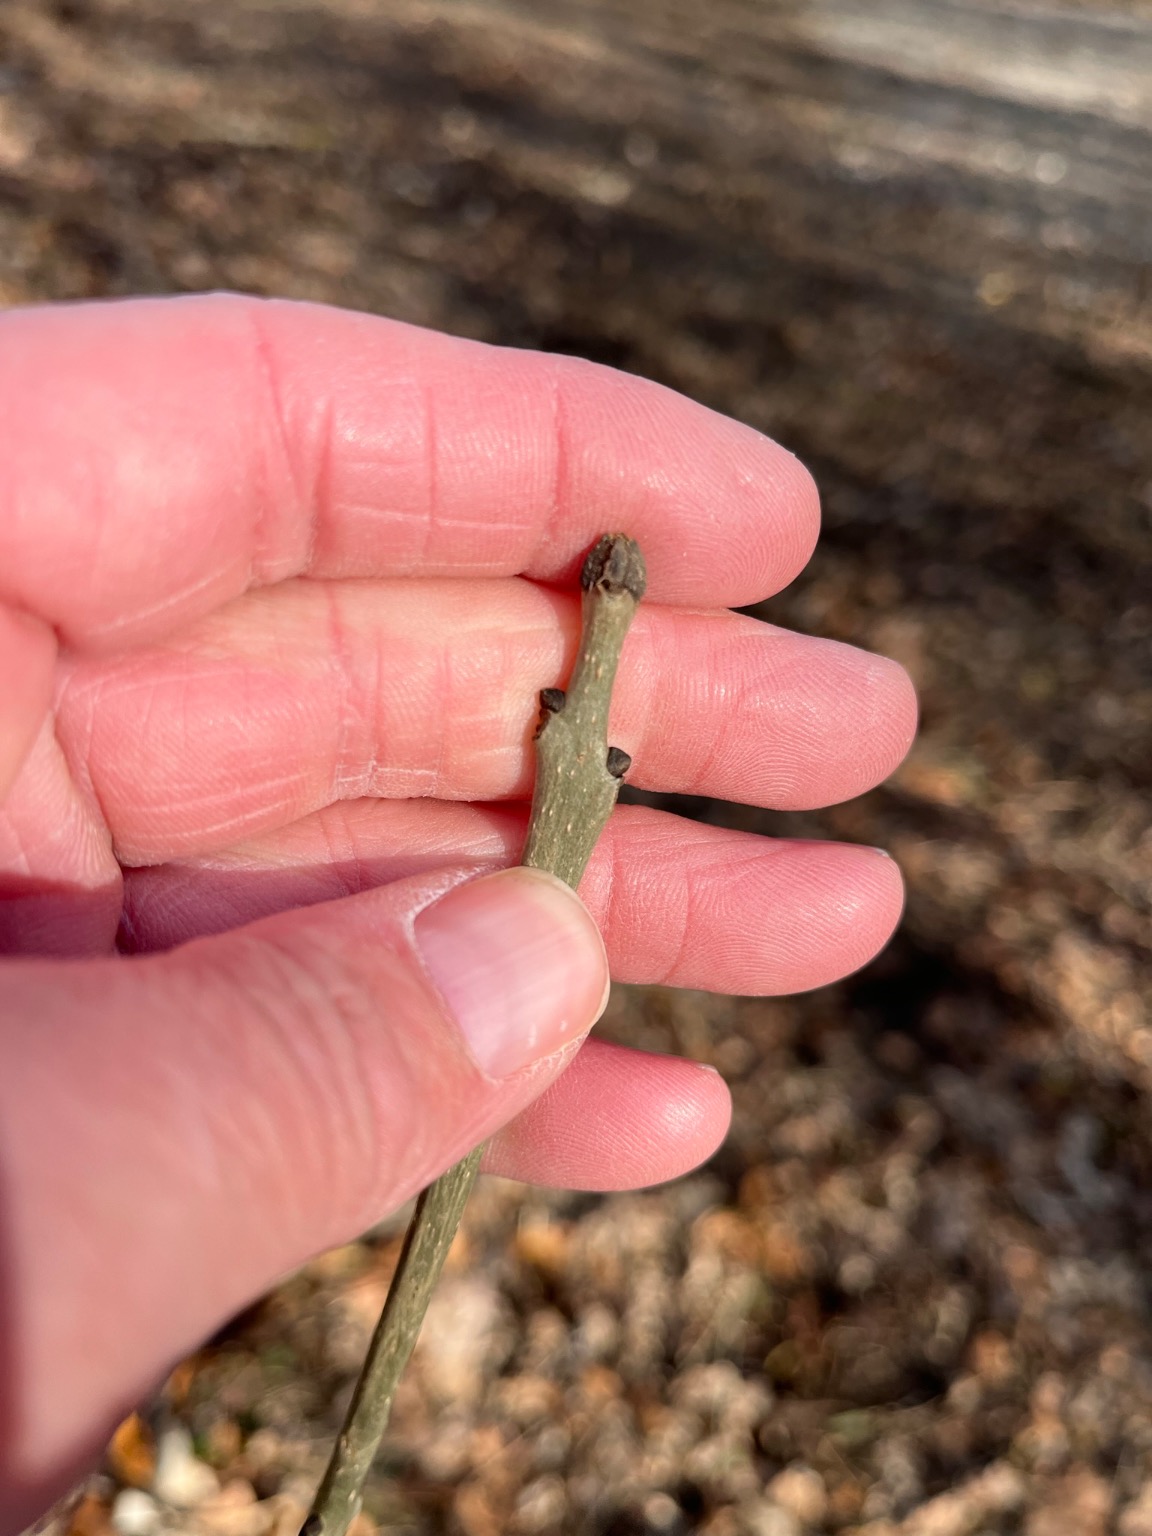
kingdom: Plantae
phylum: Tracheophyta
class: Magnoliopsida
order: Lamiales
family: Oleaceae
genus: Fraxinus
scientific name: Fraxinus excelsior
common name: Ask
